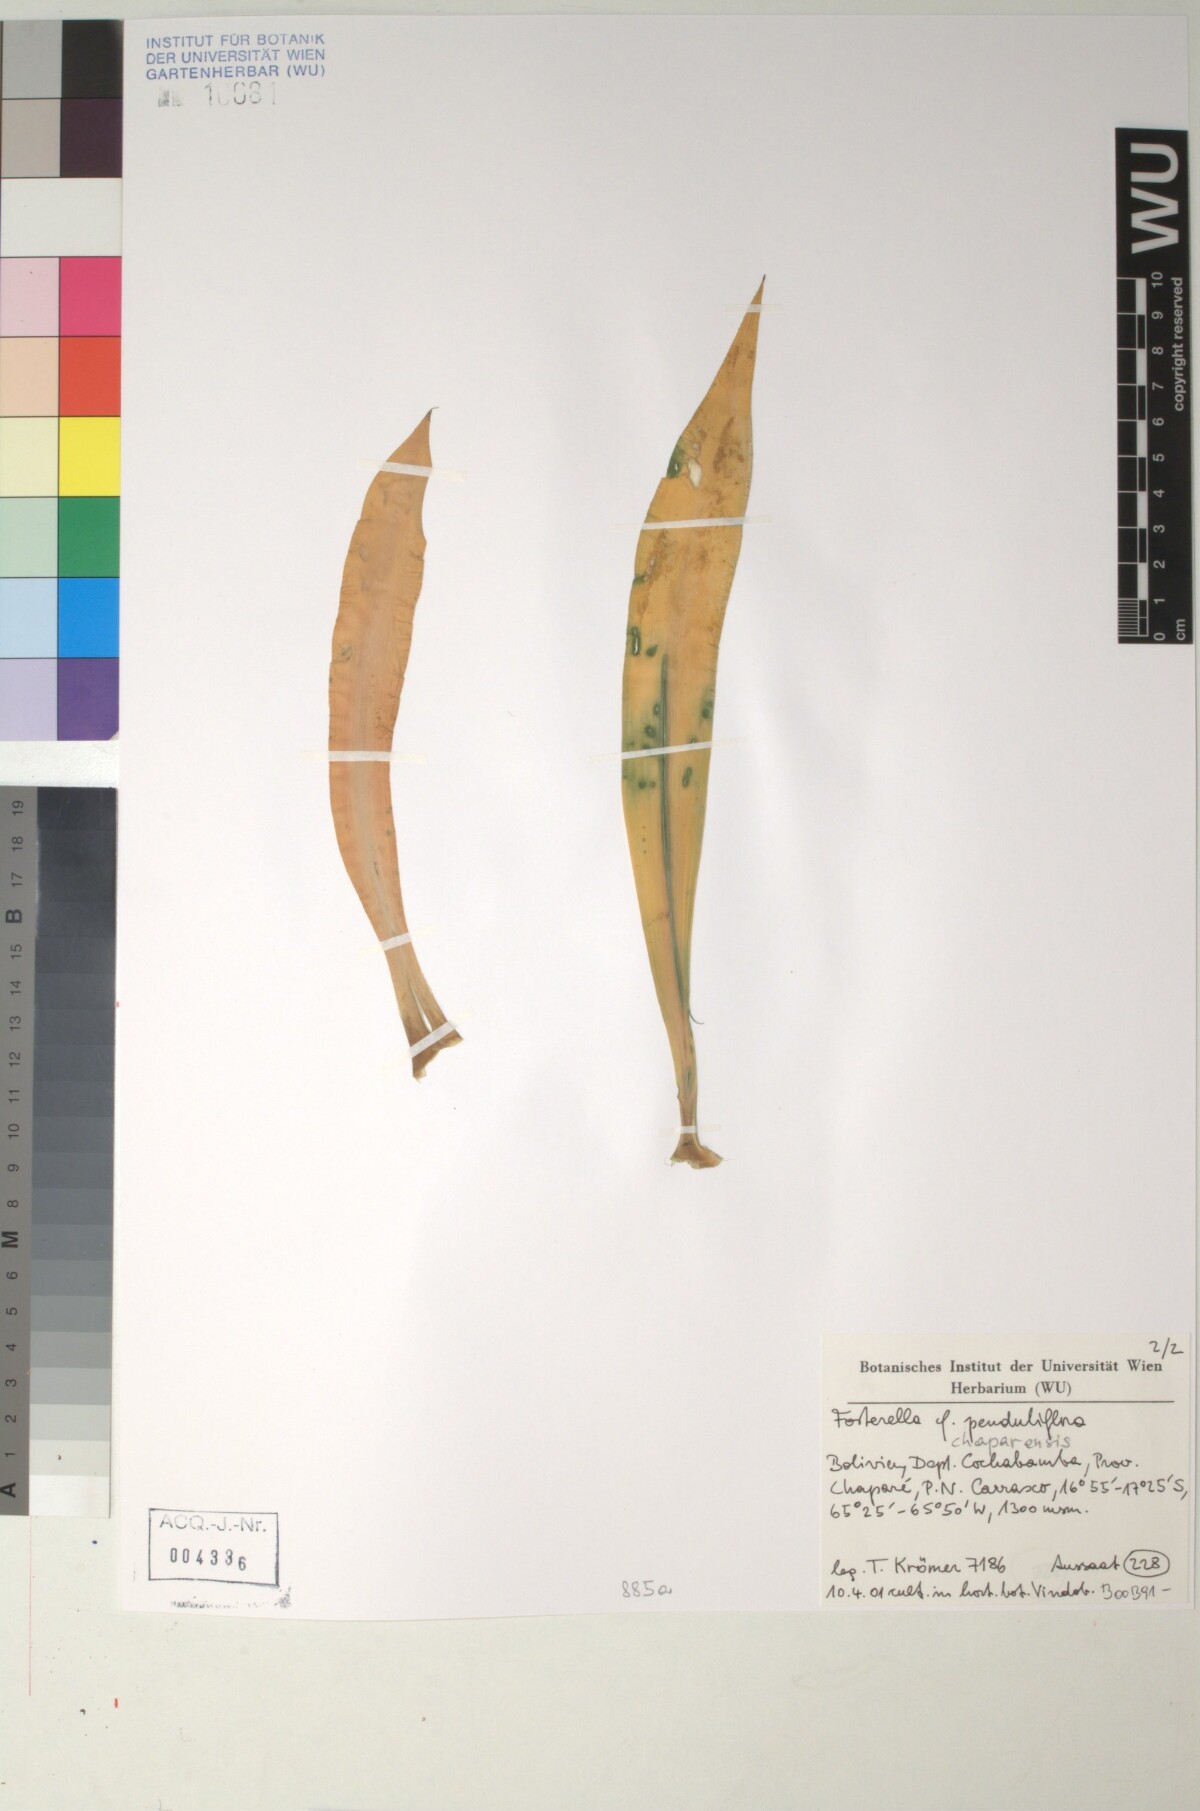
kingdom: Plantae
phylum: Tracheophyta
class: Liliopsida
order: Poales
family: Bromeliaceae
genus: Fosterella
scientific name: Fosterella chaparensis
